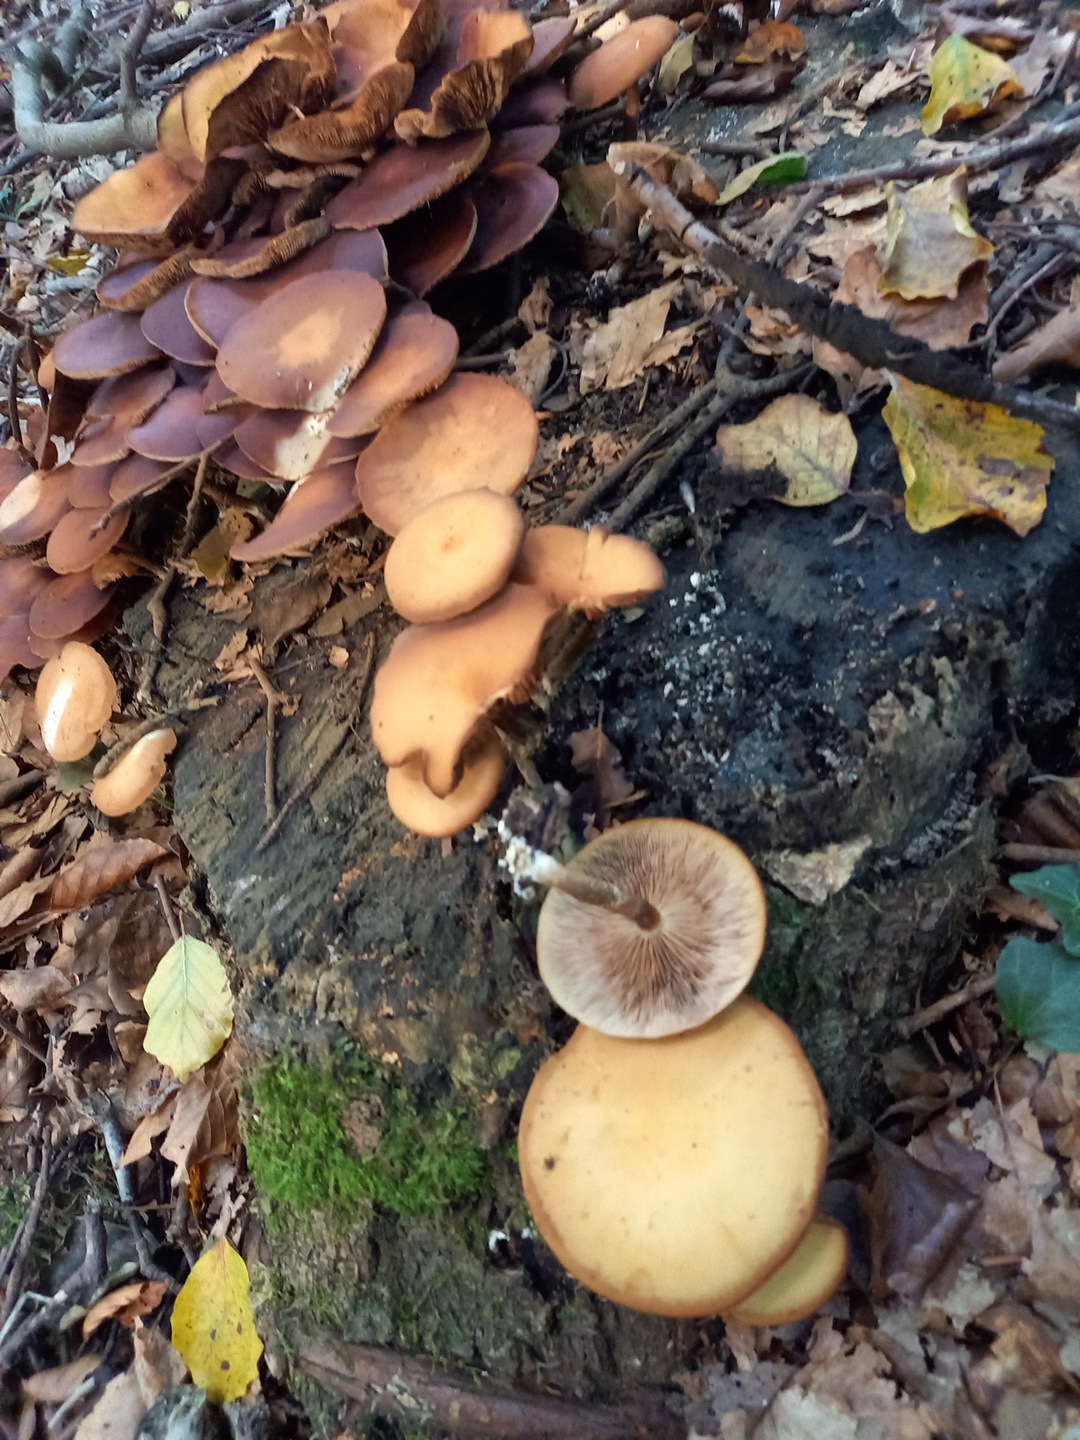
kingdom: Fungi
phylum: Basidiomycota
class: Agaricomycetes
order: Agaricales
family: Strophariaceae
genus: Kuehneromyces
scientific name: Kuehneromyces mutabilis
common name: foranderlig skælhat
